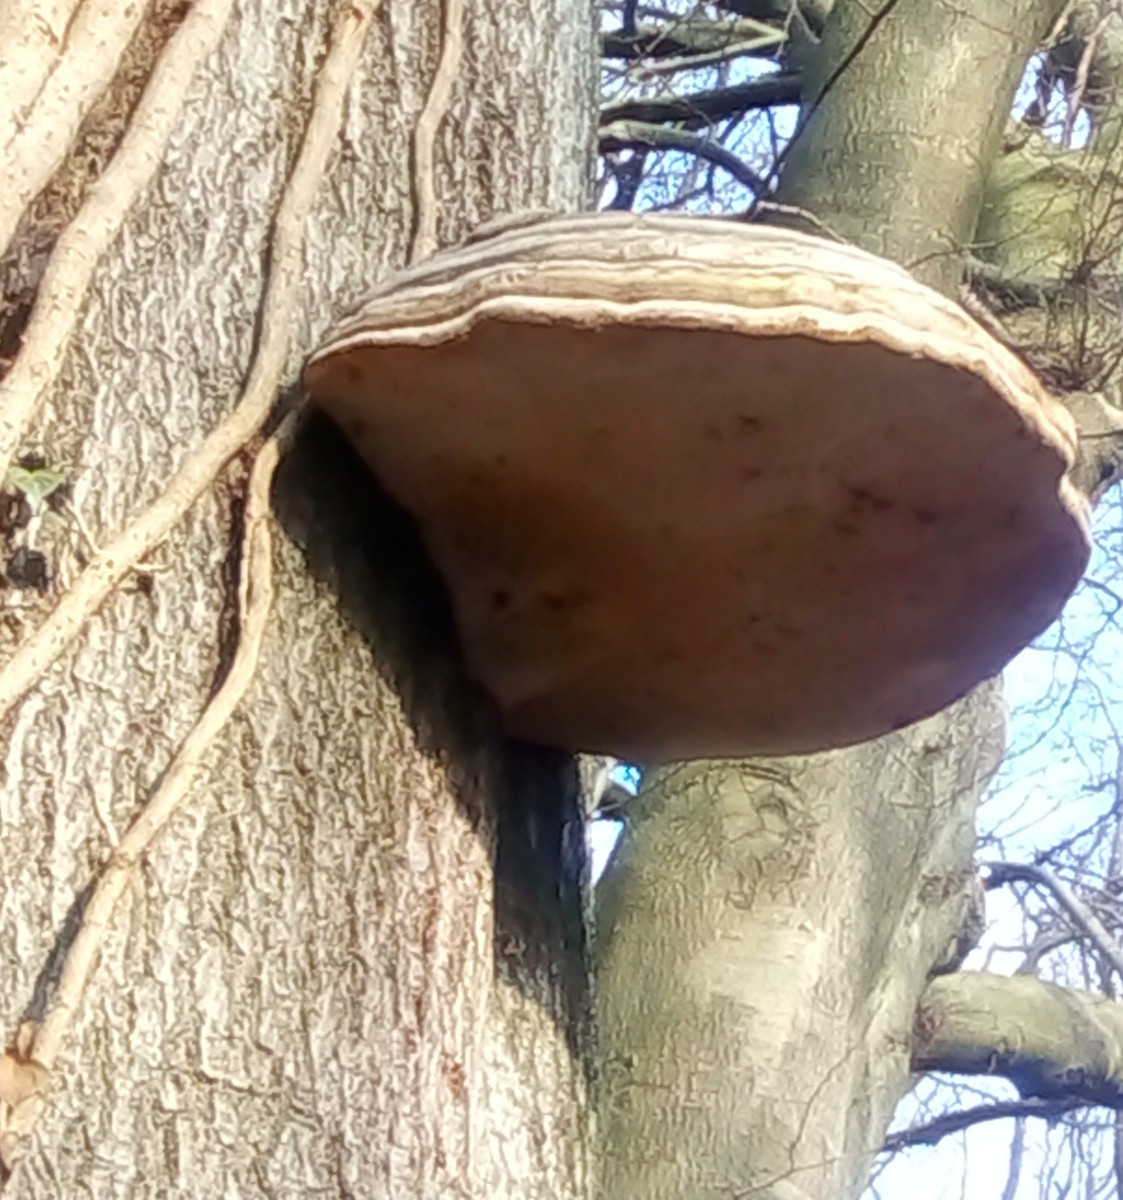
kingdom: Fungi
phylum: Basidiomycota
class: Agaricomycetes
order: Polyporales
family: Polyporaceae
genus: Fomes
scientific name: Fomes fomentarius
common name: tøndersvamp
